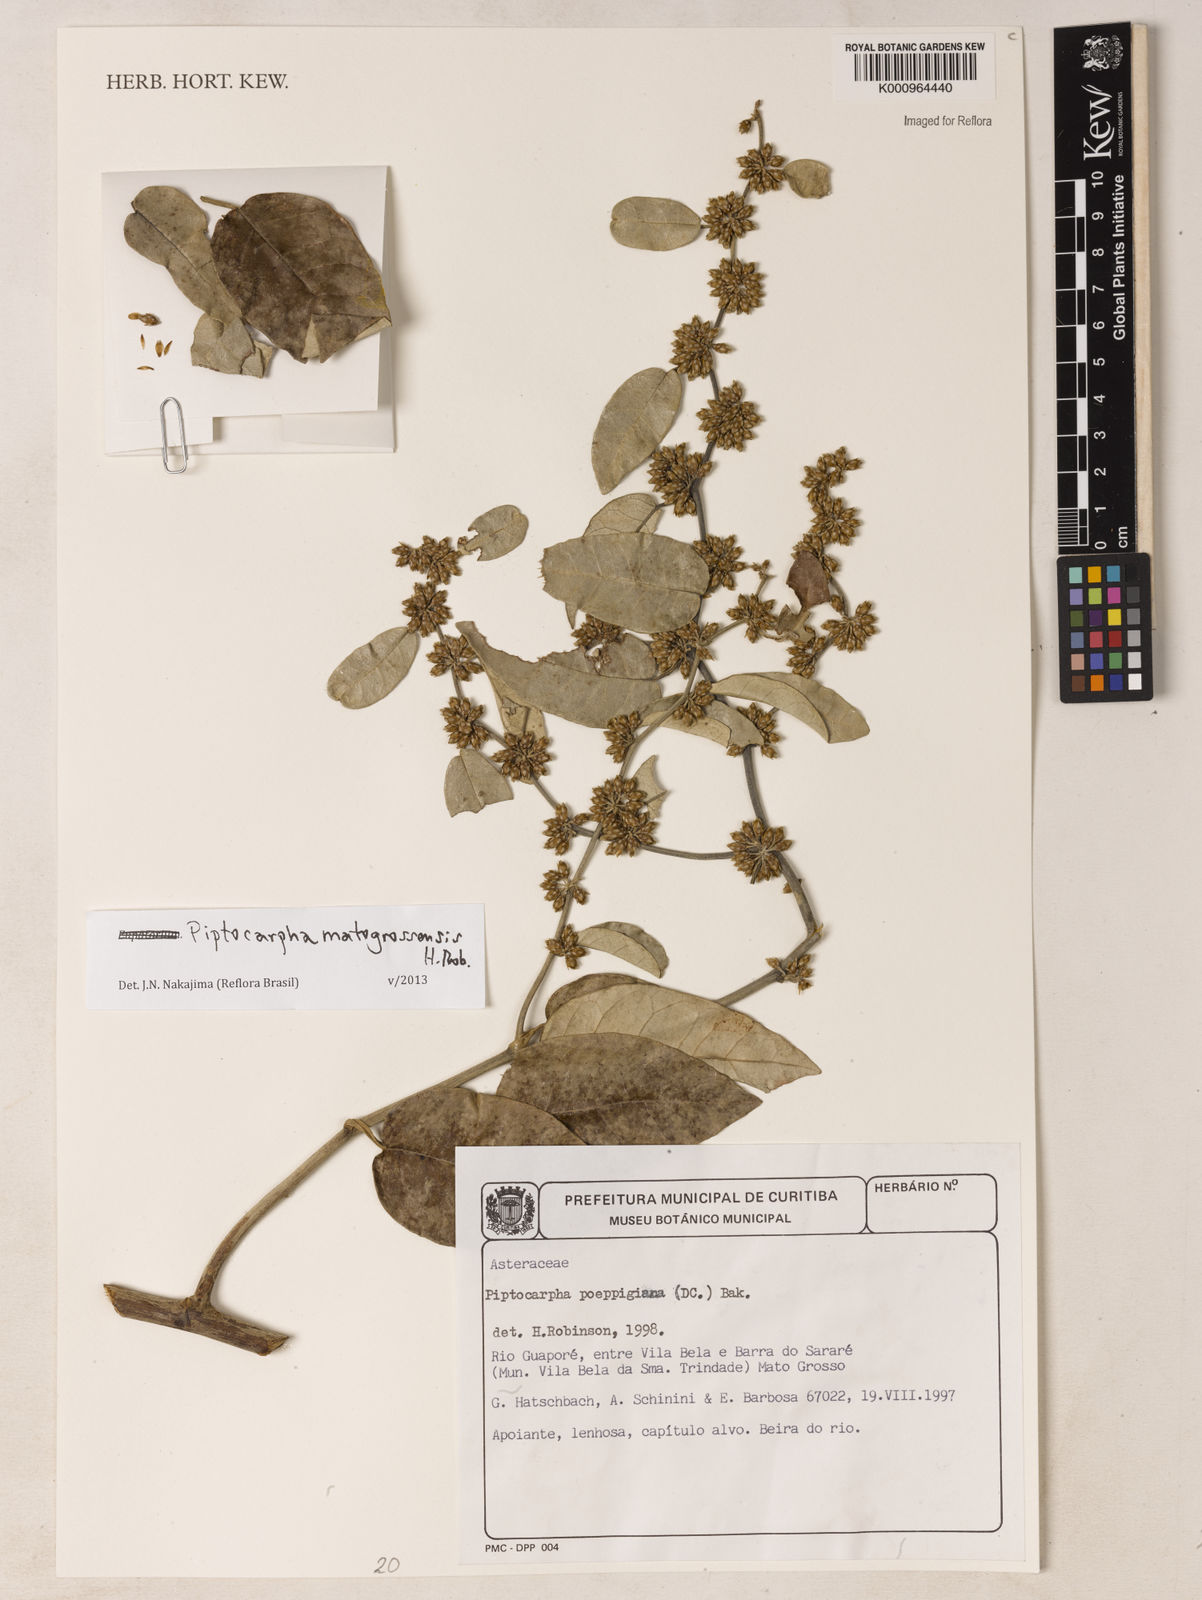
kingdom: Plantae
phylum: Tracheophyta
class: Magnoliopsida
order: Asterales
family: Asteraceae
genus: Piptocarpha
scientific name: Piptocarpha matogrossensis
